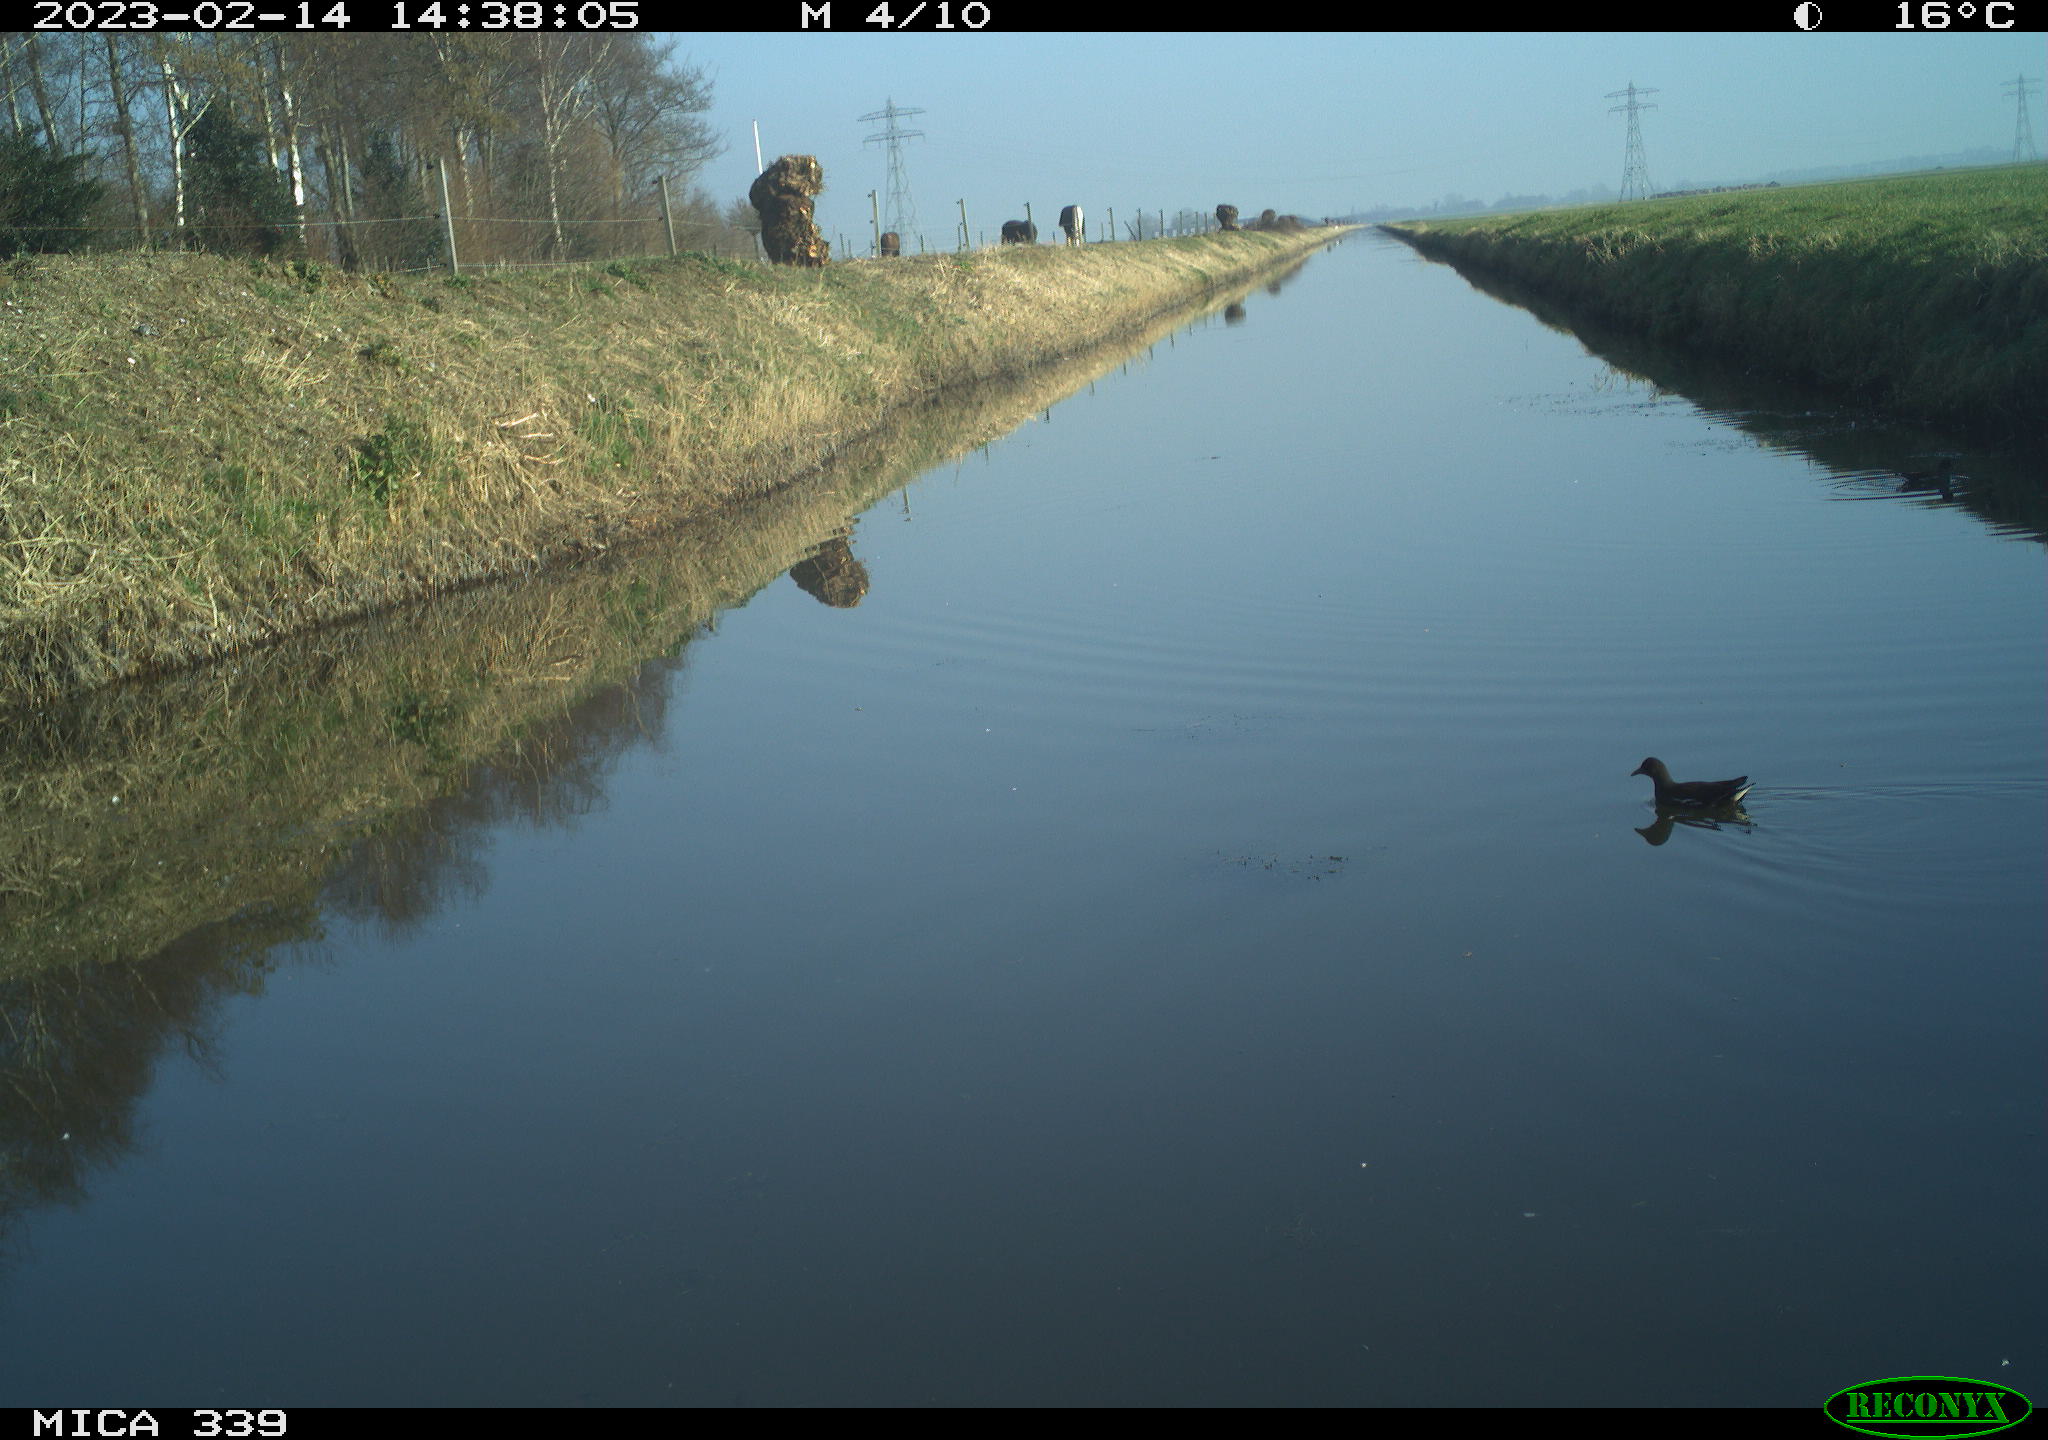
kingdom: Animalia
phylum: Chordata
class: Aves
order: Gruiformes
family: Rallidae
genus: Gallinula
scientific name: Gallinula chloropus
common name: Common moorhen
